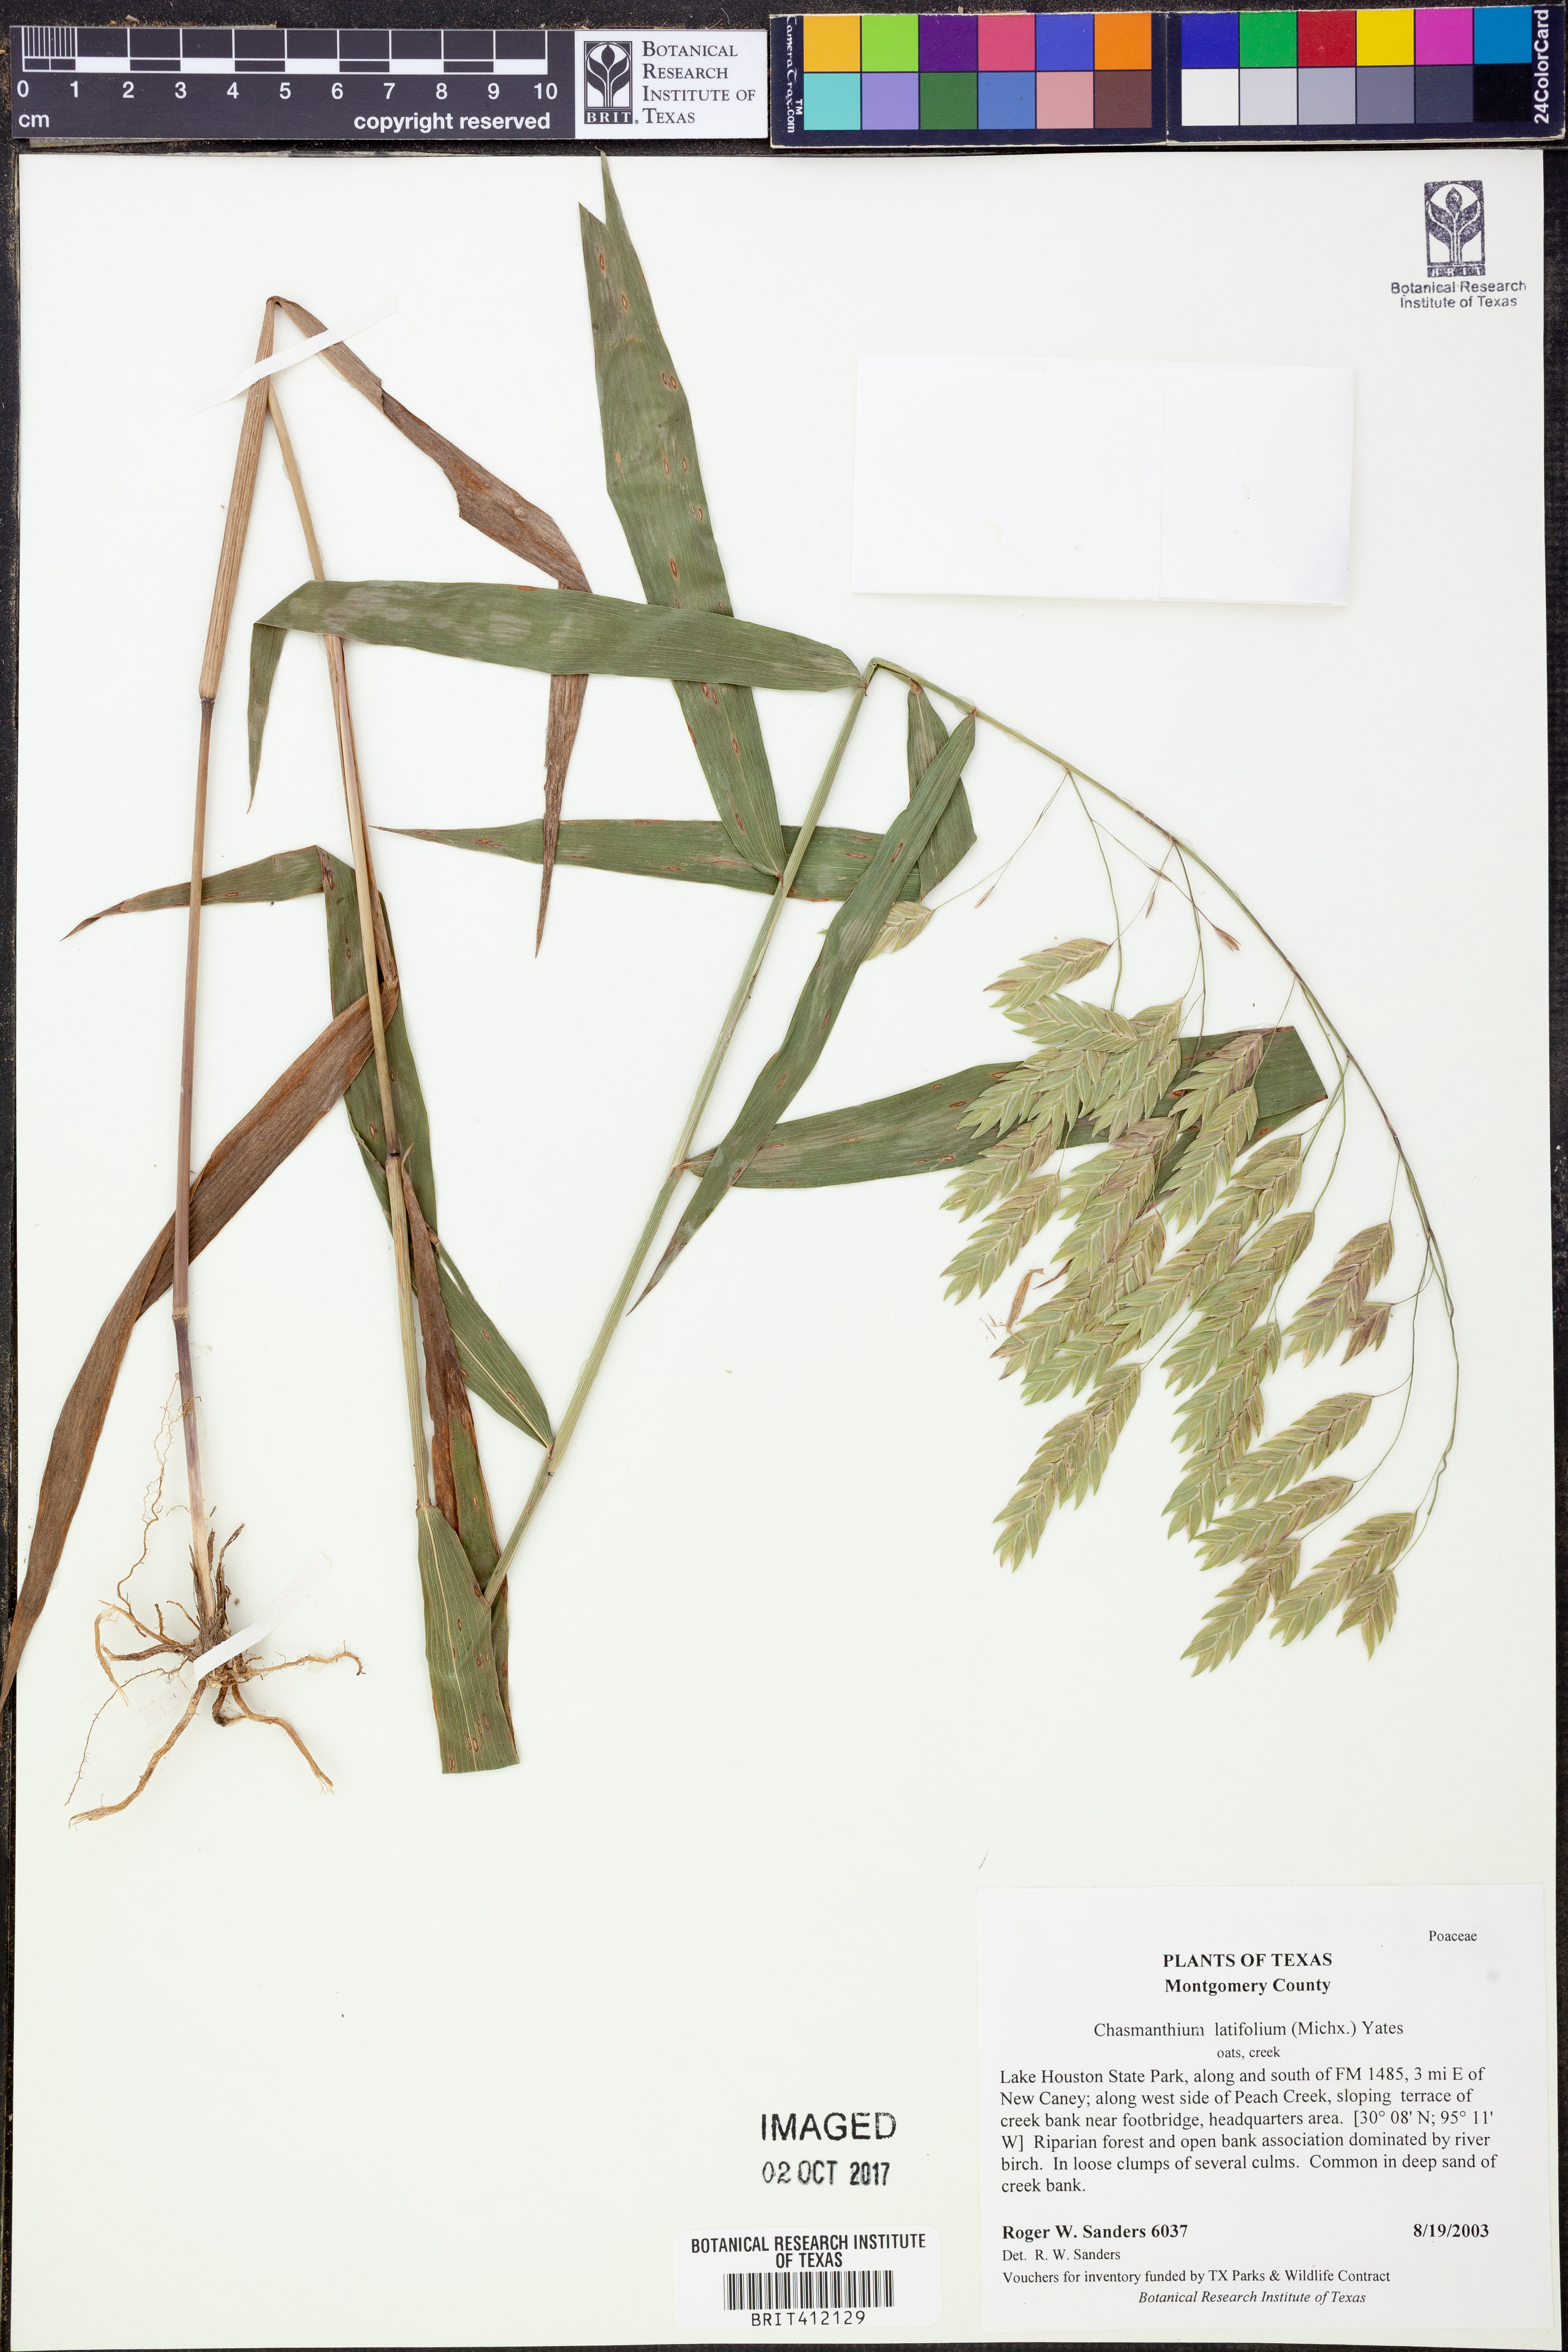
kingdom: Plantae
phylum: Tracheophyta
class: Liliopsida
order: Poales
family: Poaceae
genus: Chasmanthium
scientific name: Chasmanthium latifolium
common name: Broad-leaved chasmanthium
